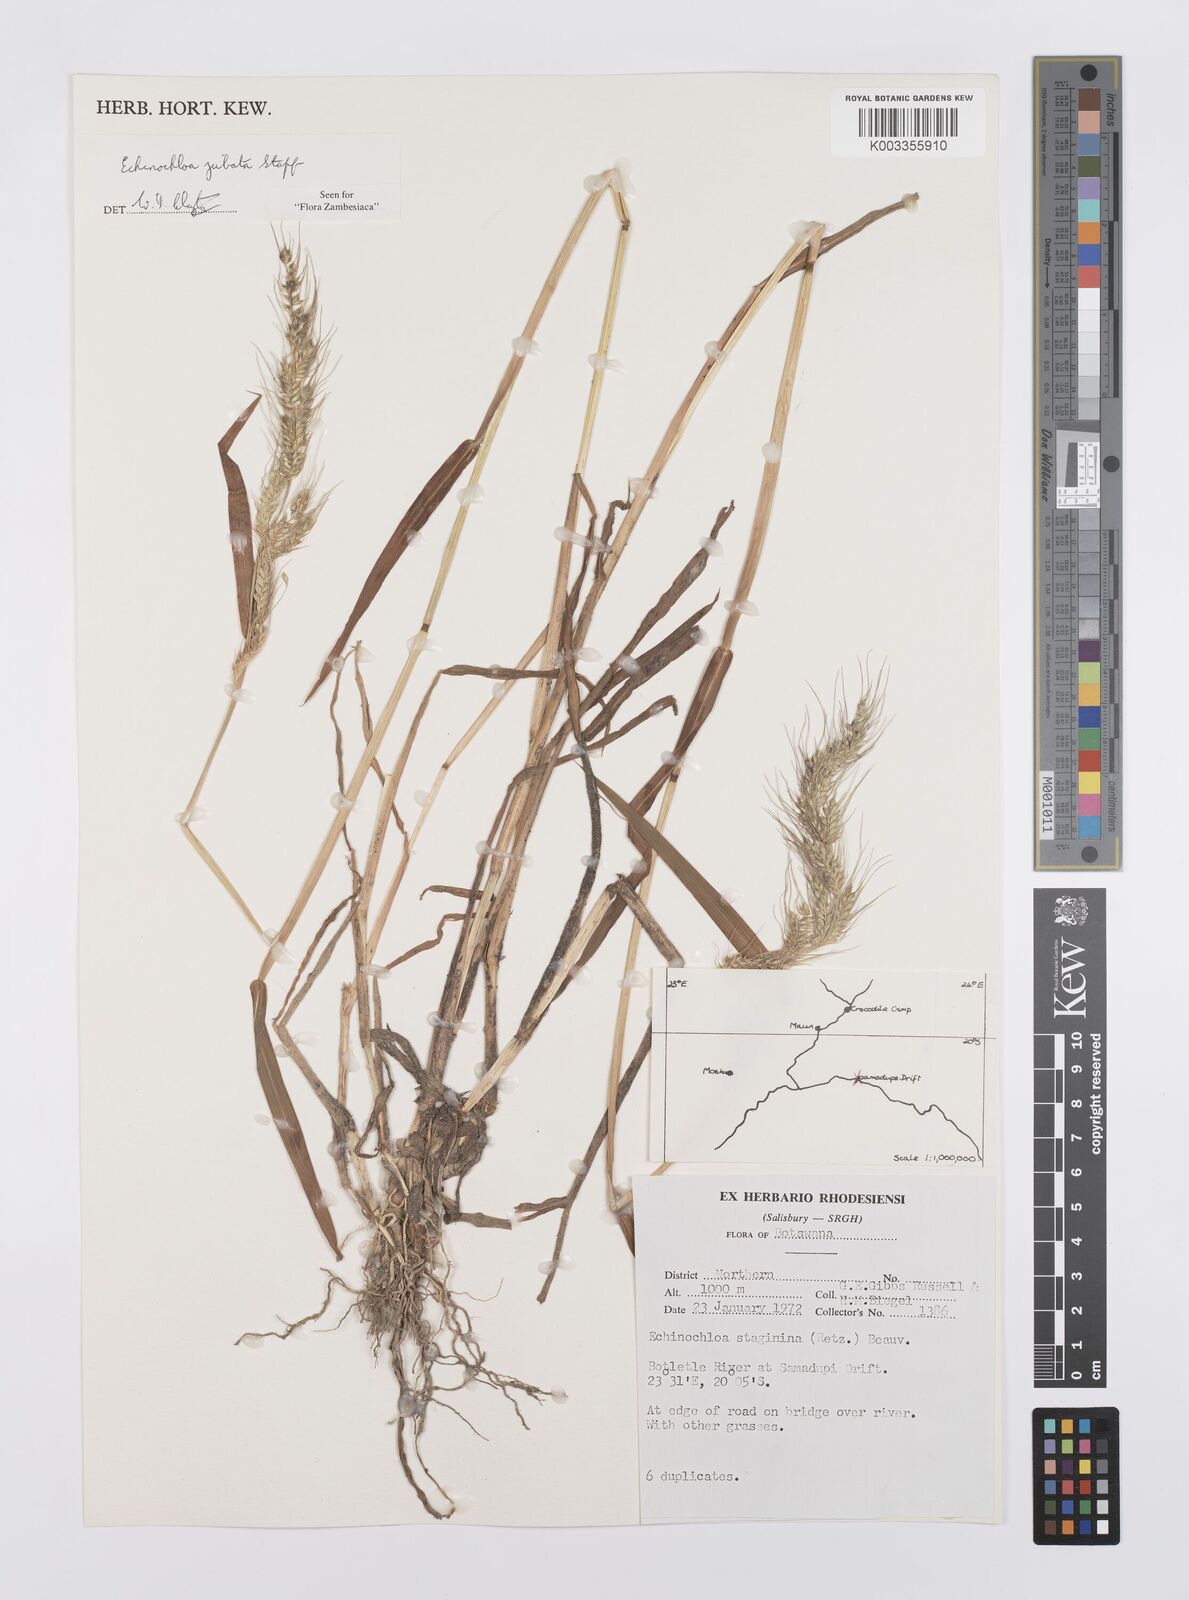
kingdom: Plantae
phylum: Tracheophyta
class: Liliopsida
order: Poales
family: Poaceae
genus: Echinochloa
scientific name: Echinochloa jubata
